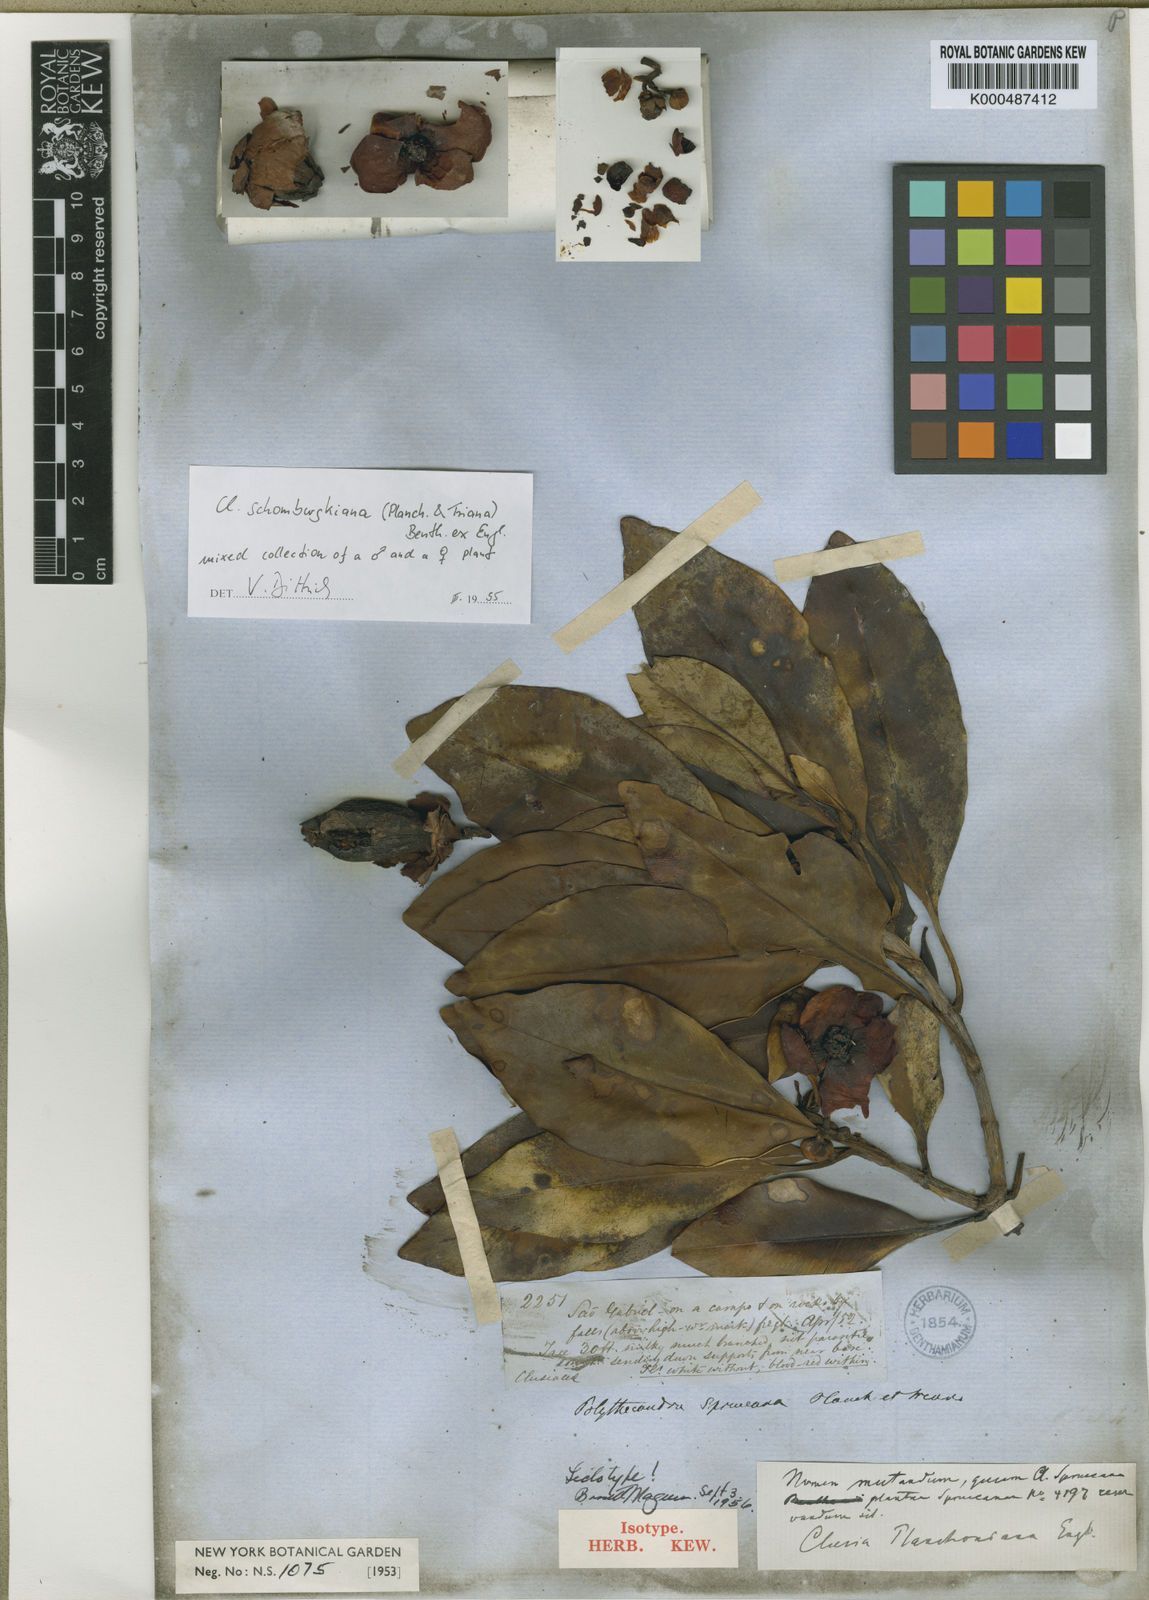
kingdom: Plantae
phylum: Tracheophyta
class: Magnoliopsida
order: Malpighiales
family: Clusiaceae
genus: Clusia
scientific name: Clusia planchoniana
